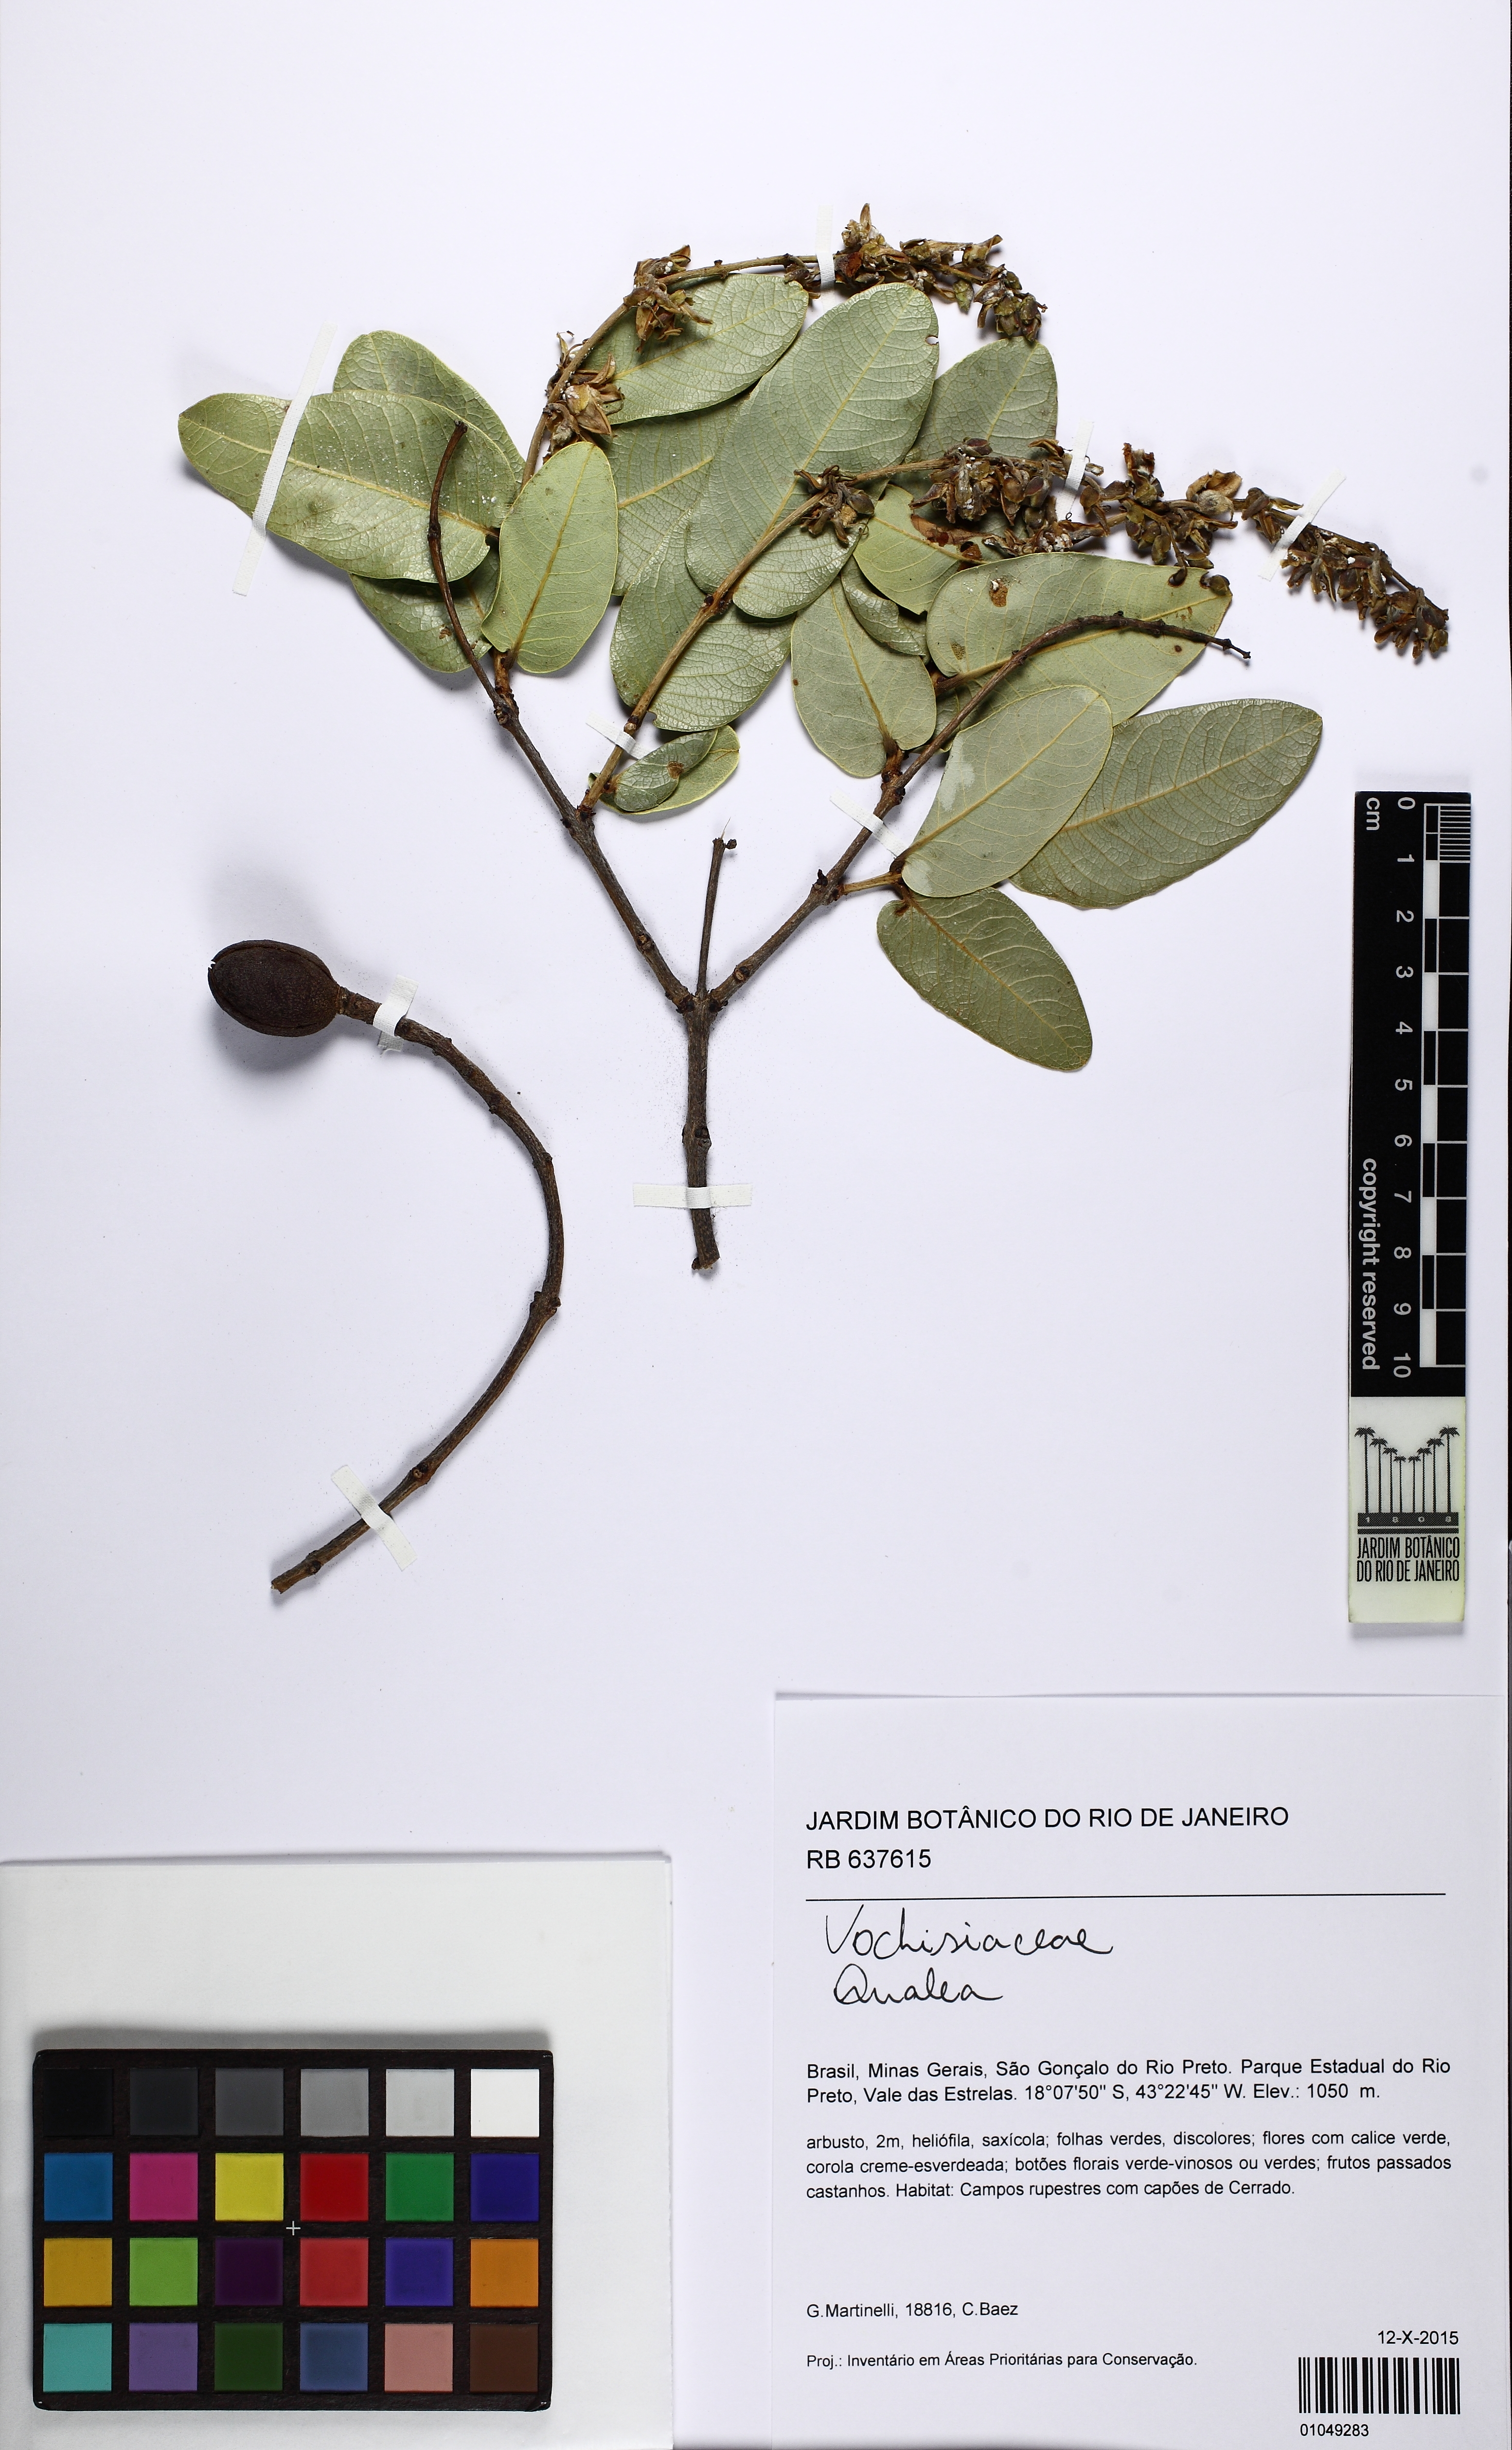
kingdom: Plantae
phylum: Tracheophyta
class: Magnoliopsida
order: Myrtales
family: Vochysiaceae
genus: Qualea
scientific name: Qualea
